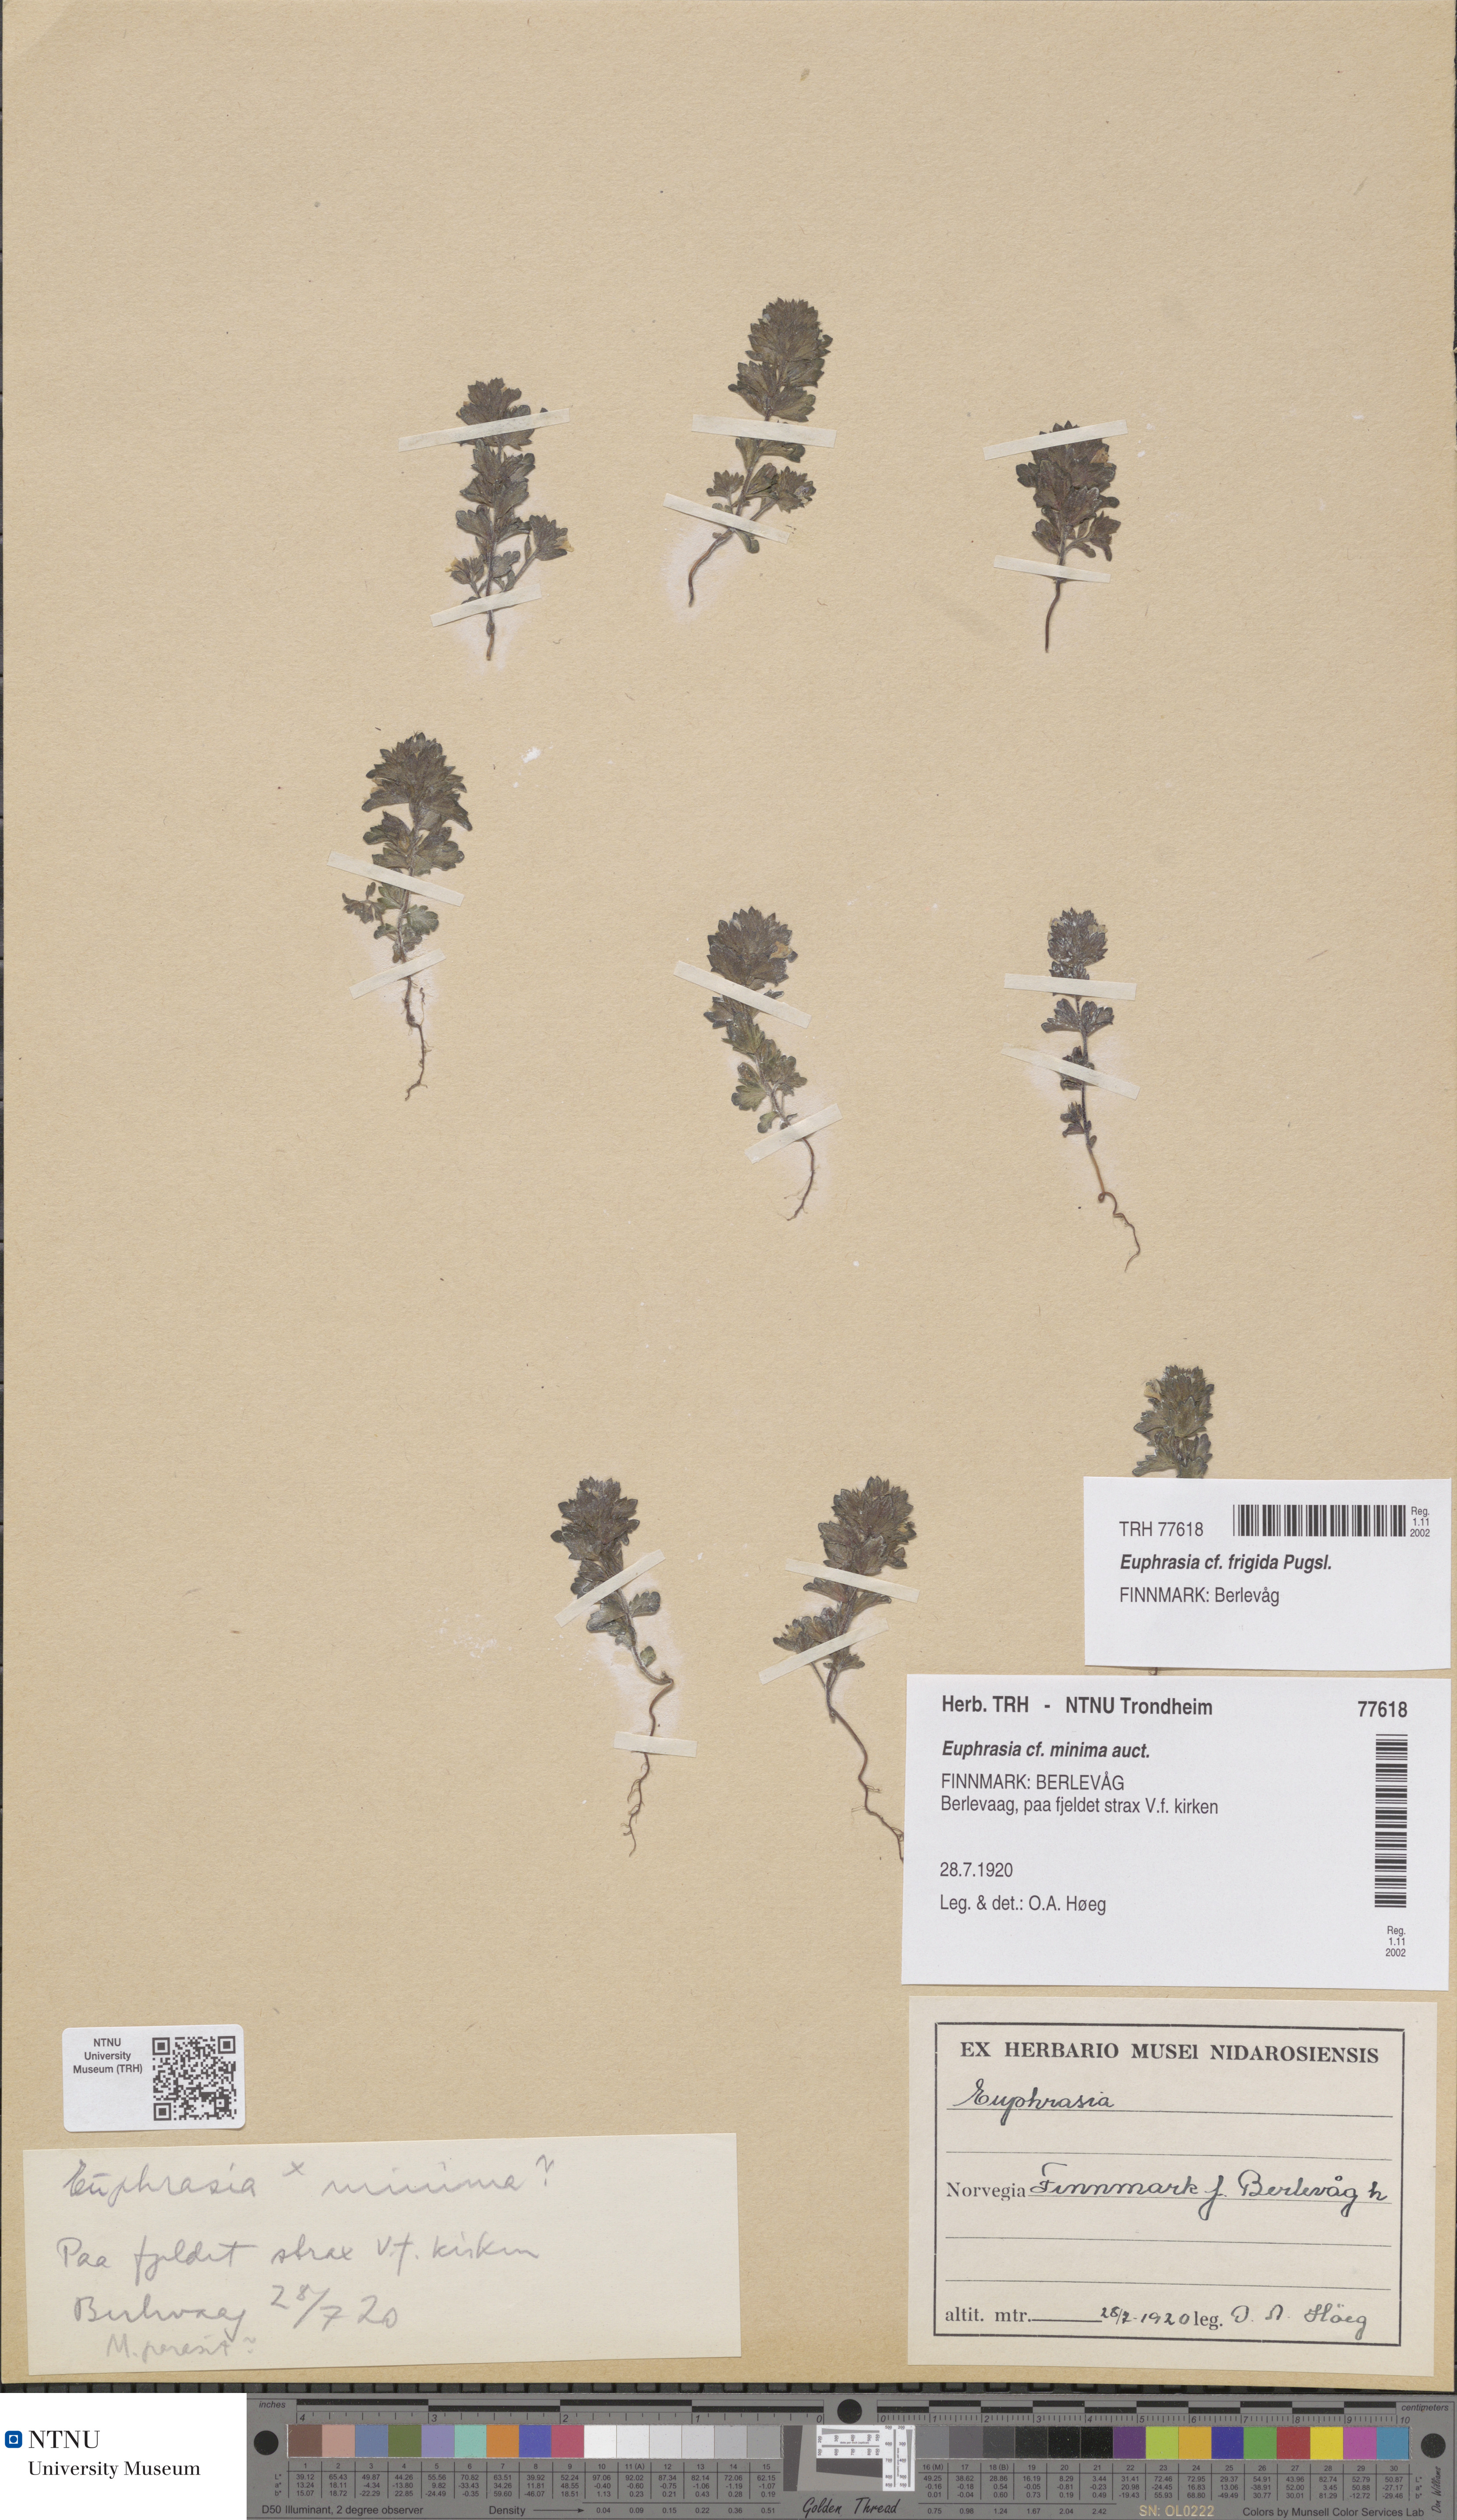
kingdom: Plantae
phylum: Tracheophyta
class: Magnoliopsida
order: Lamiales
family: Orobanchaceae
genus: Euphrasia
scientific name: Euphrasia wettsteinii
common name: Wettstein's eyebright
